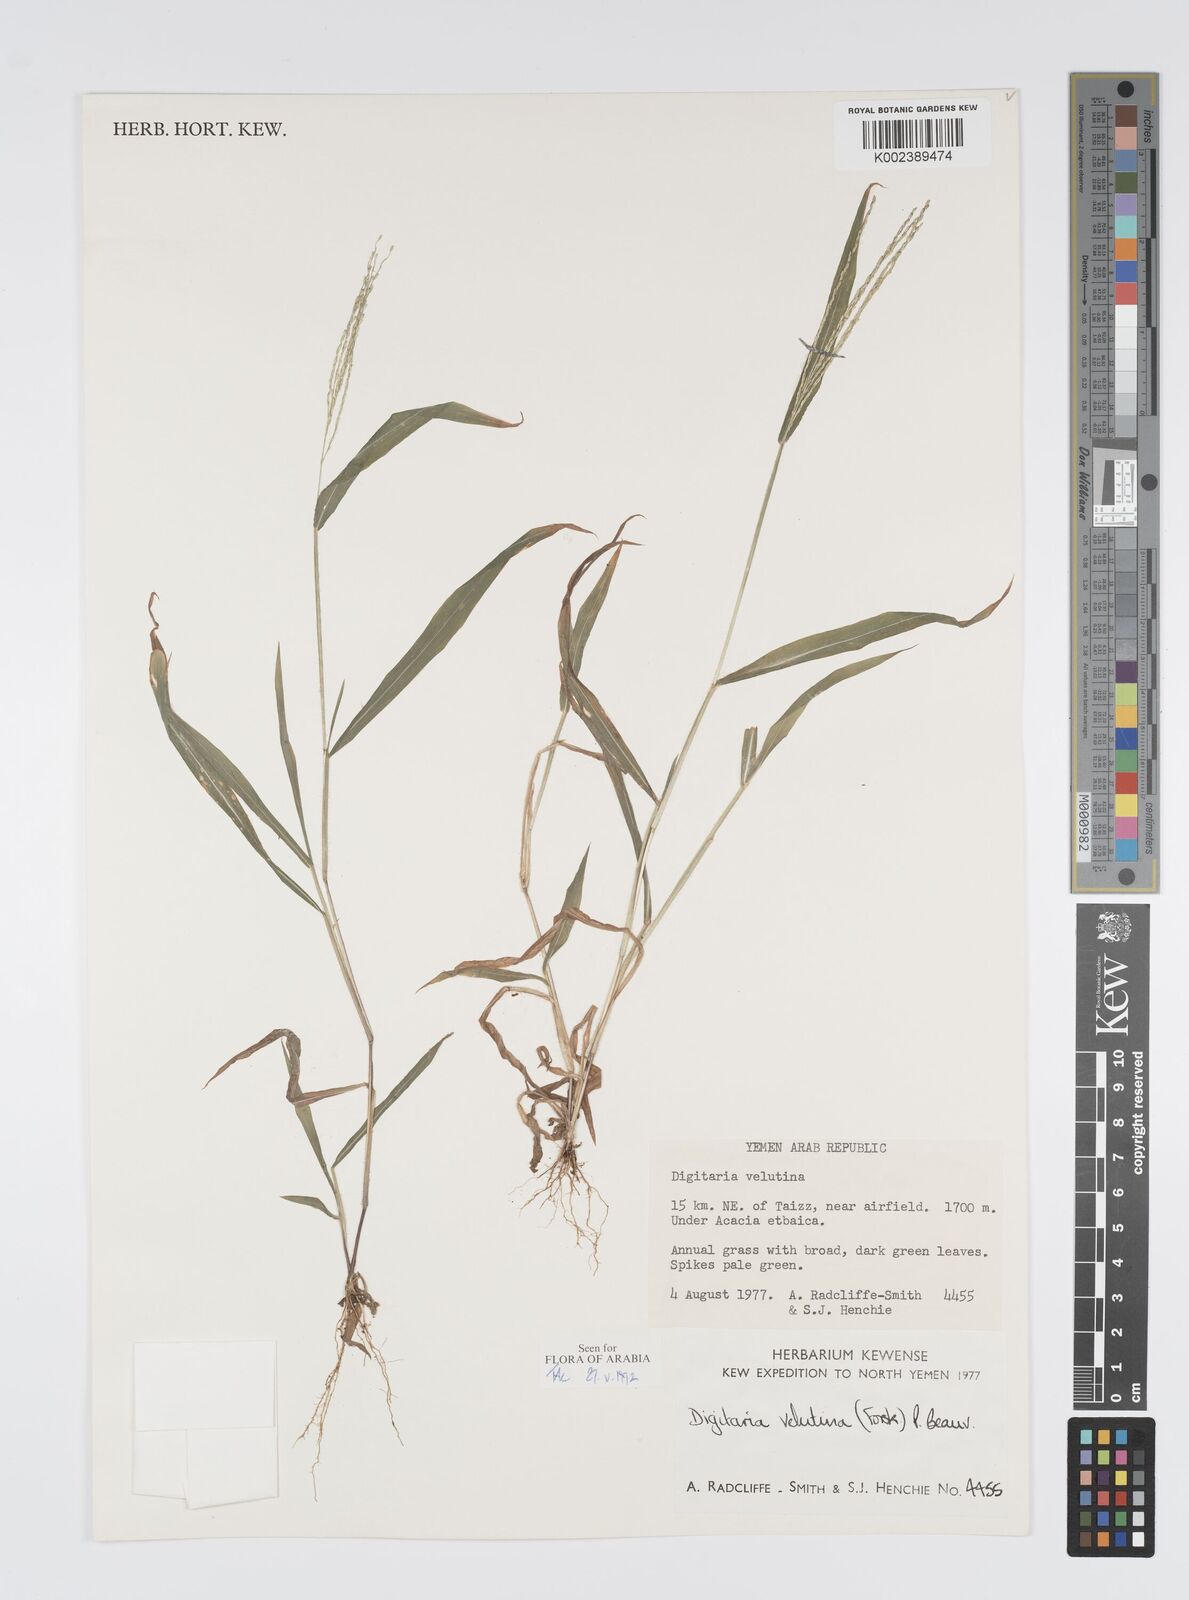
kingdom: Plantae
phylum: Tracheophyta
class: Liliopsida
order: Poales
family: Poaceae
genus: Digitaria
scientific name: Digitaria velutina
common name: Long-plume finger grass
